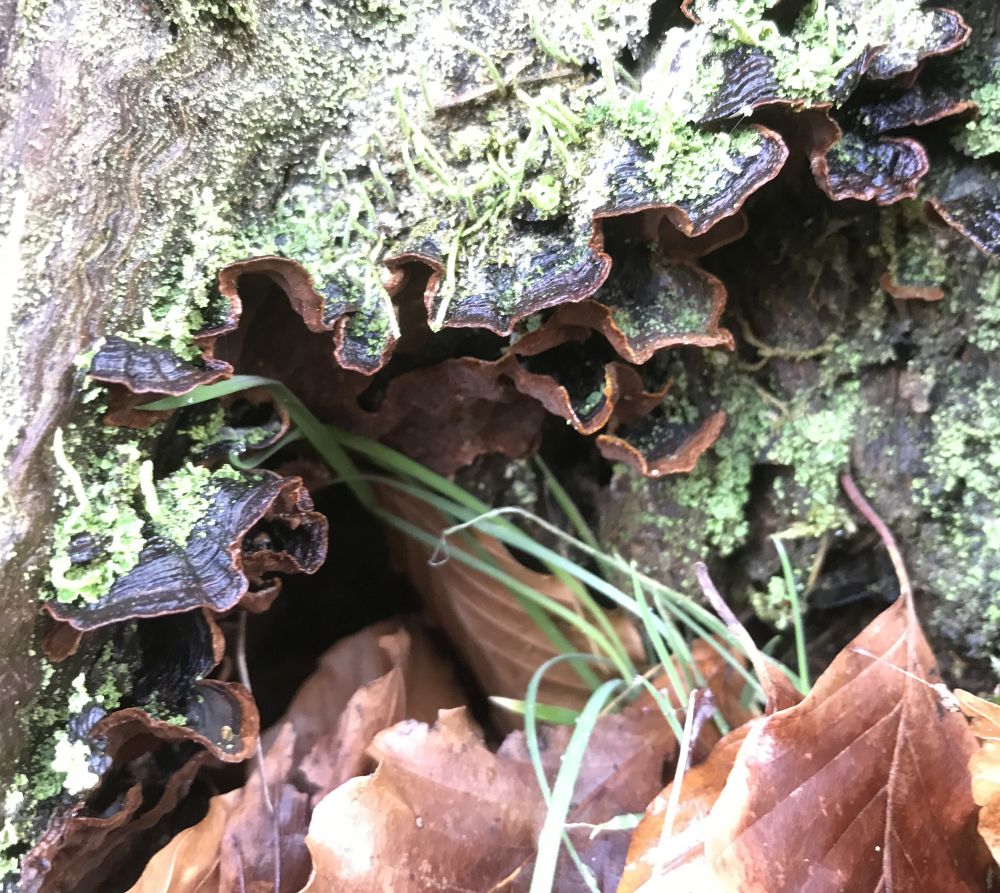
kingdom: Fungi
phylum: Basidiomycota
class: Agaricomycetes
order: Hymenochaetales
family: Hymenochaetaceae
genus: Hymenochaete
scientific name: Hymenochaete rubiginosa
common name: stiv ruslædersvamp
